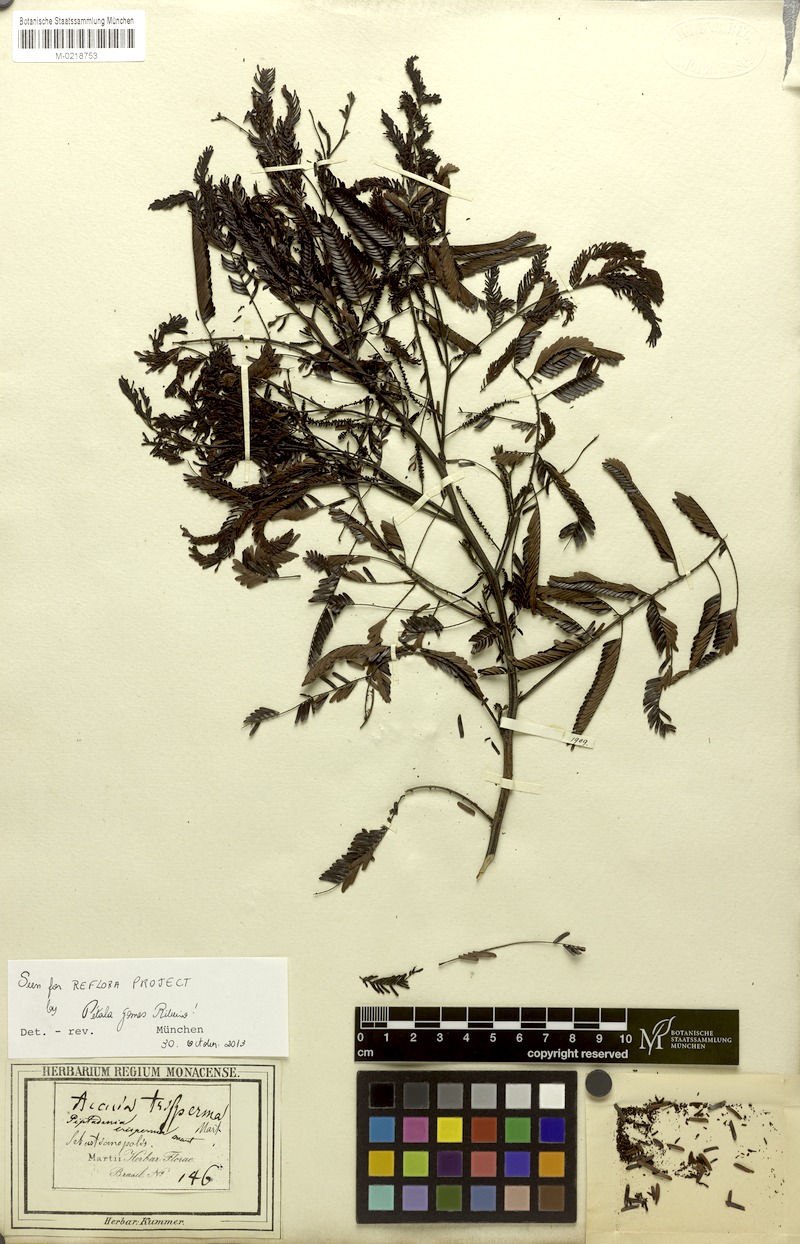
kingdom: Plantae
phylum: Tracheophyta
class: Magnoliopsida
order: Fabales
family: Fabaceae
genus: Piptadenia
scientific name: Piptadenia trisperma
